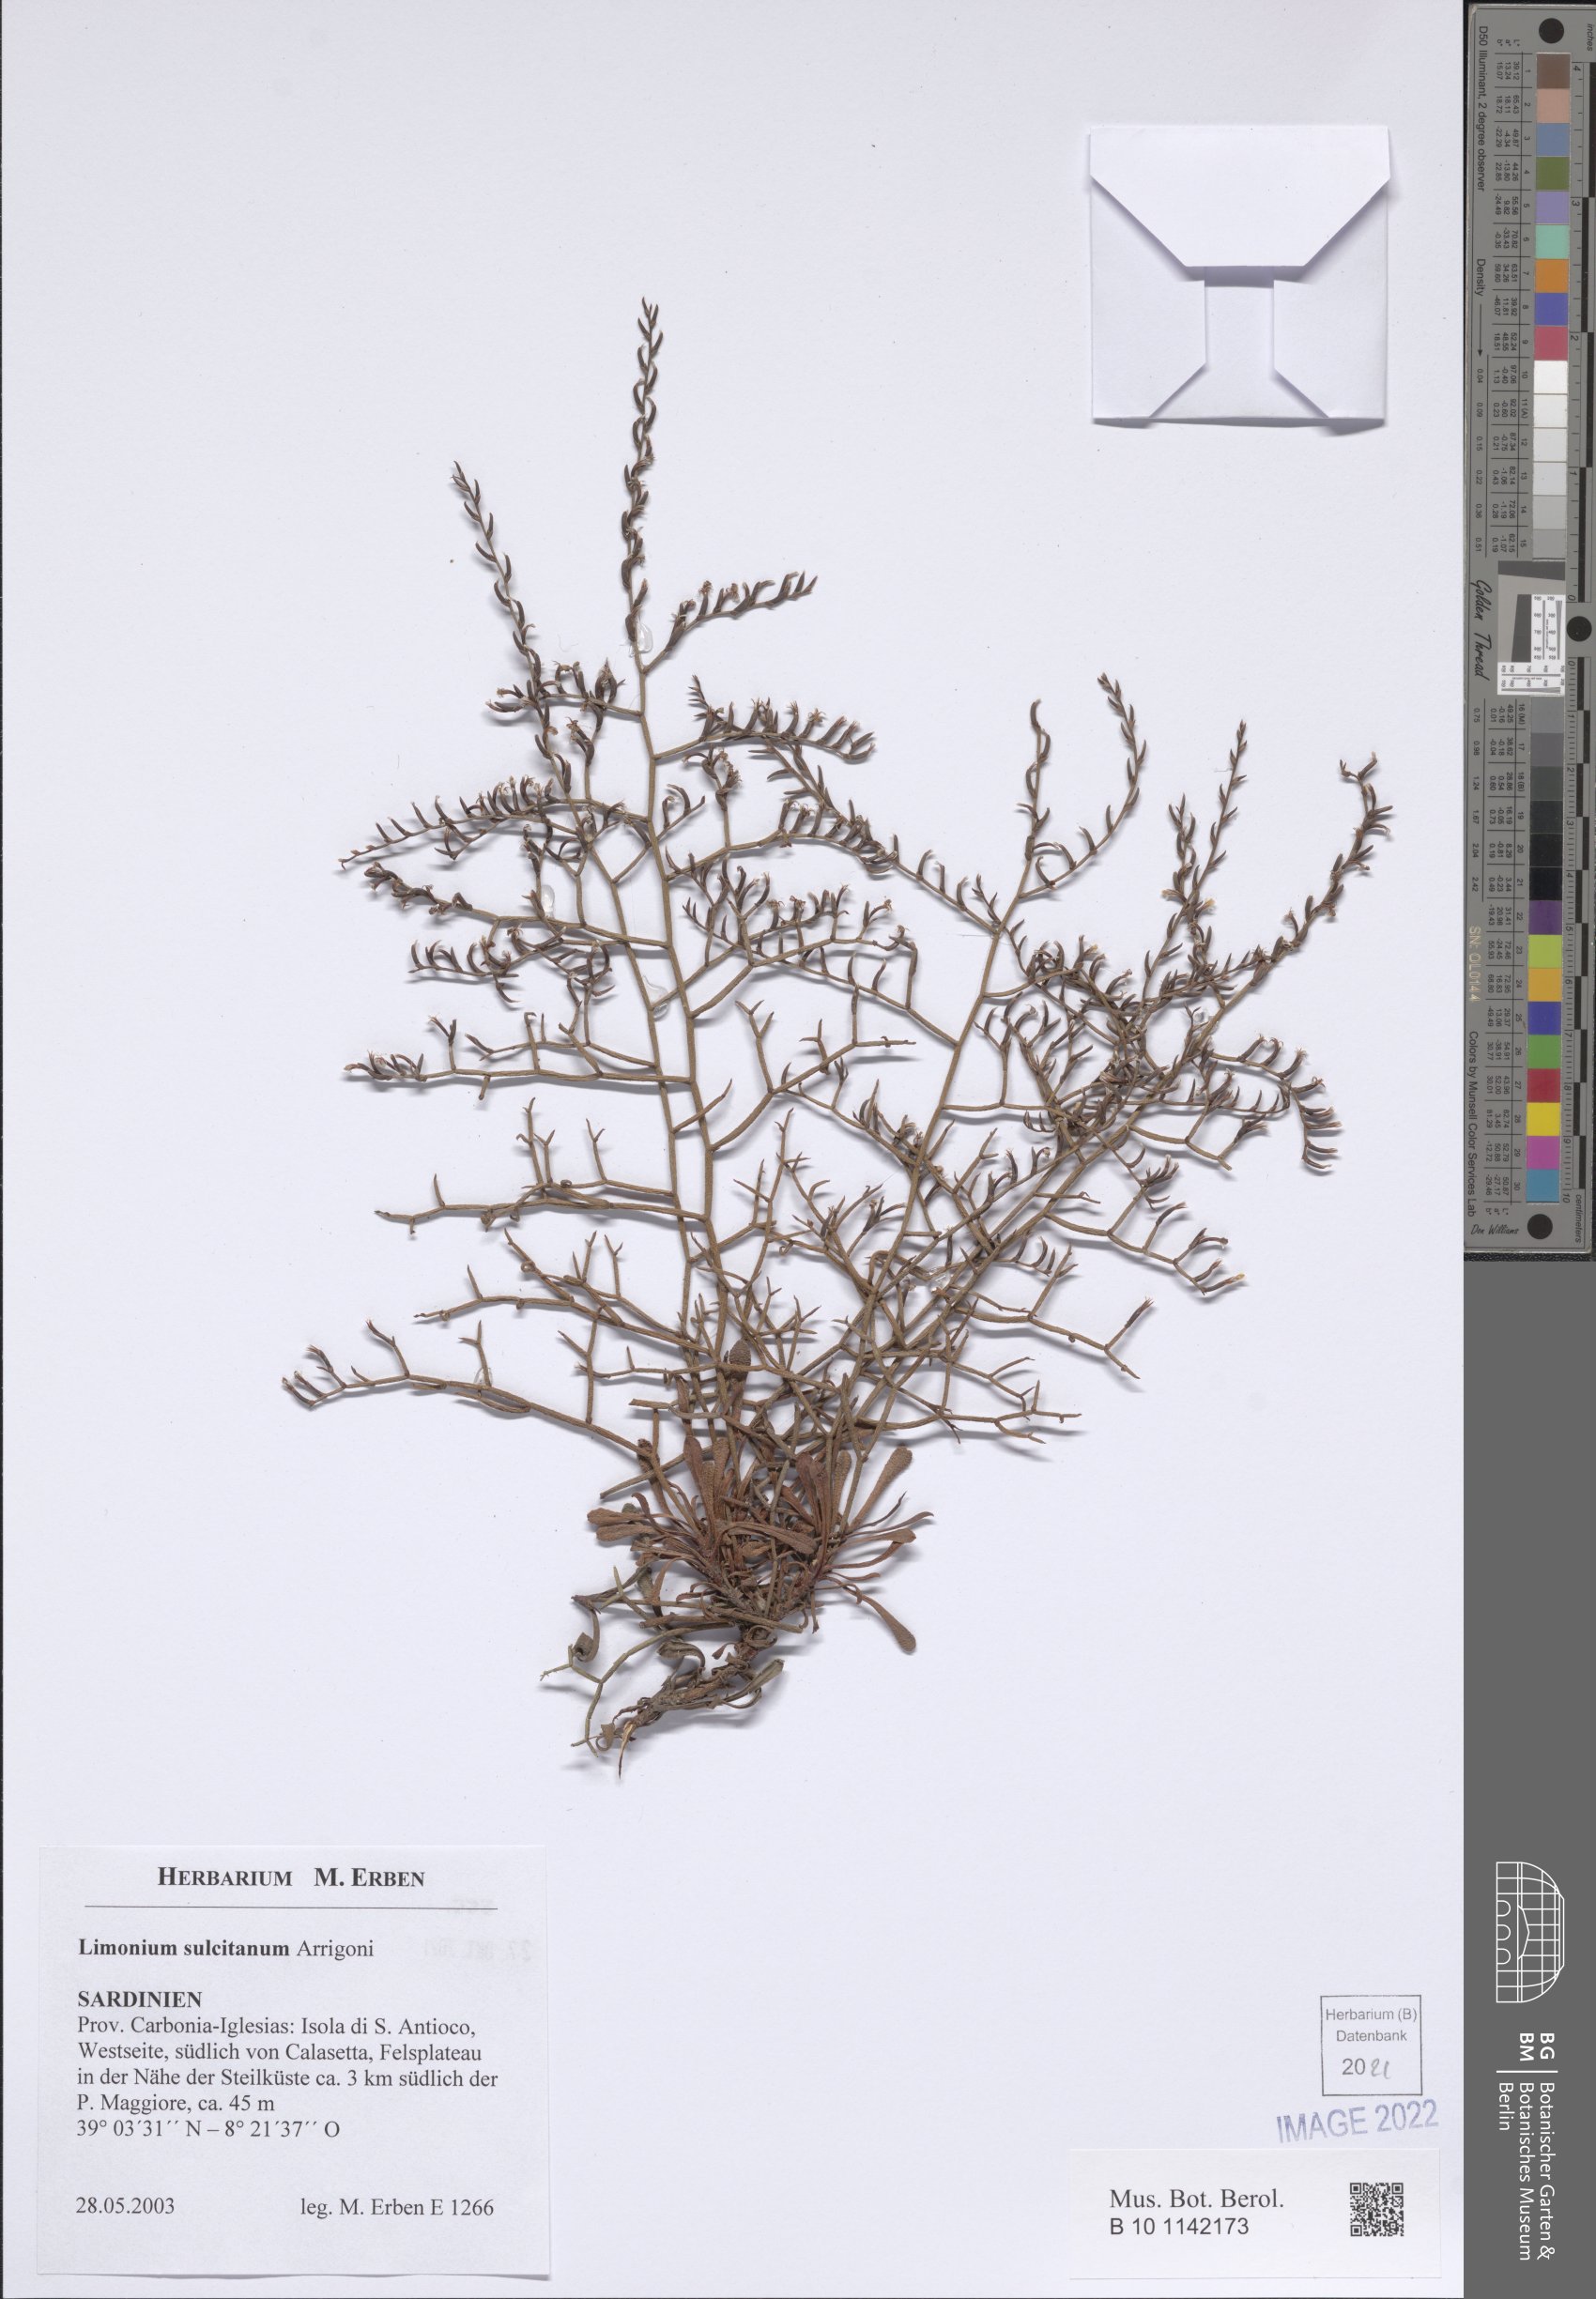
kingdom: Plantae
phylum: Tracheophyta
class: Magnoliopsida
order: Caryophyllales
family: Plumbaginaceae
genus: Limonium
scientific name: Limonium sulcitanum
